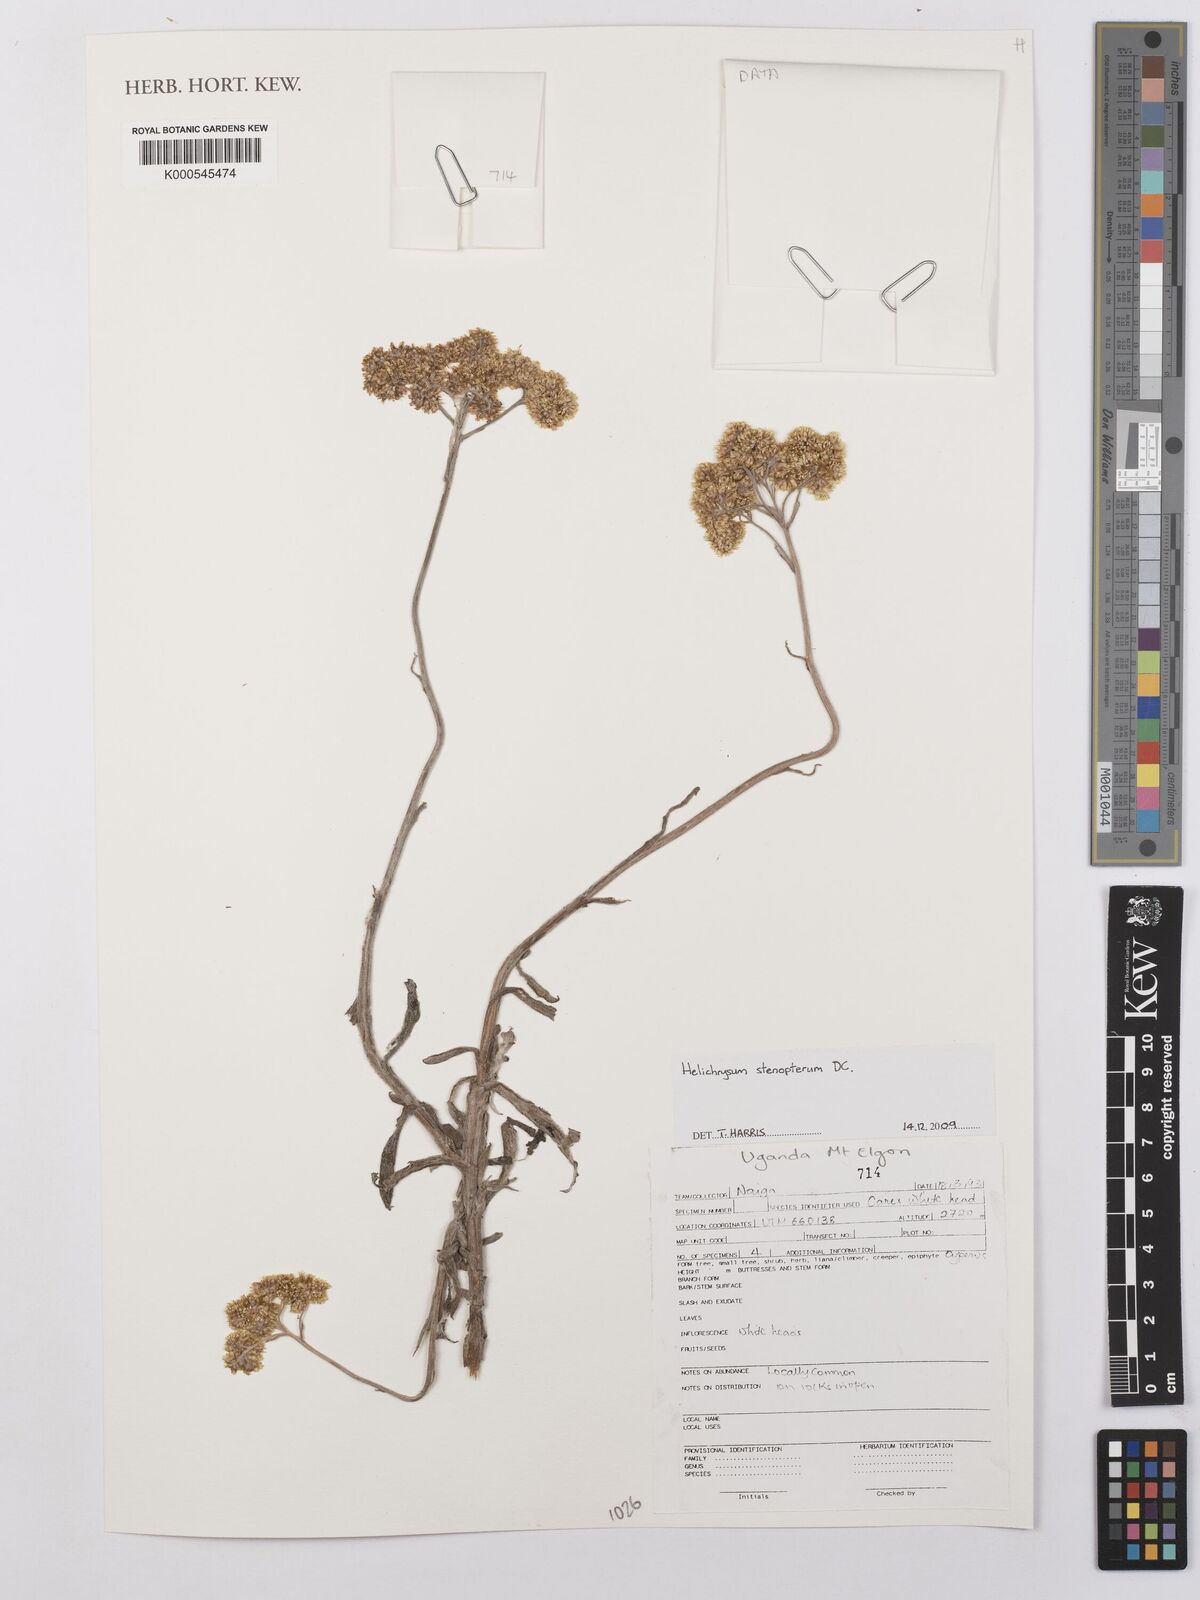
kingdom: Plantae
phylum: Tracheophyta
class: Magnoliopsida
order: Asterales
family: Asteraceae
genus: Helichrysum
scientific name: Helichrysum stenopterum
